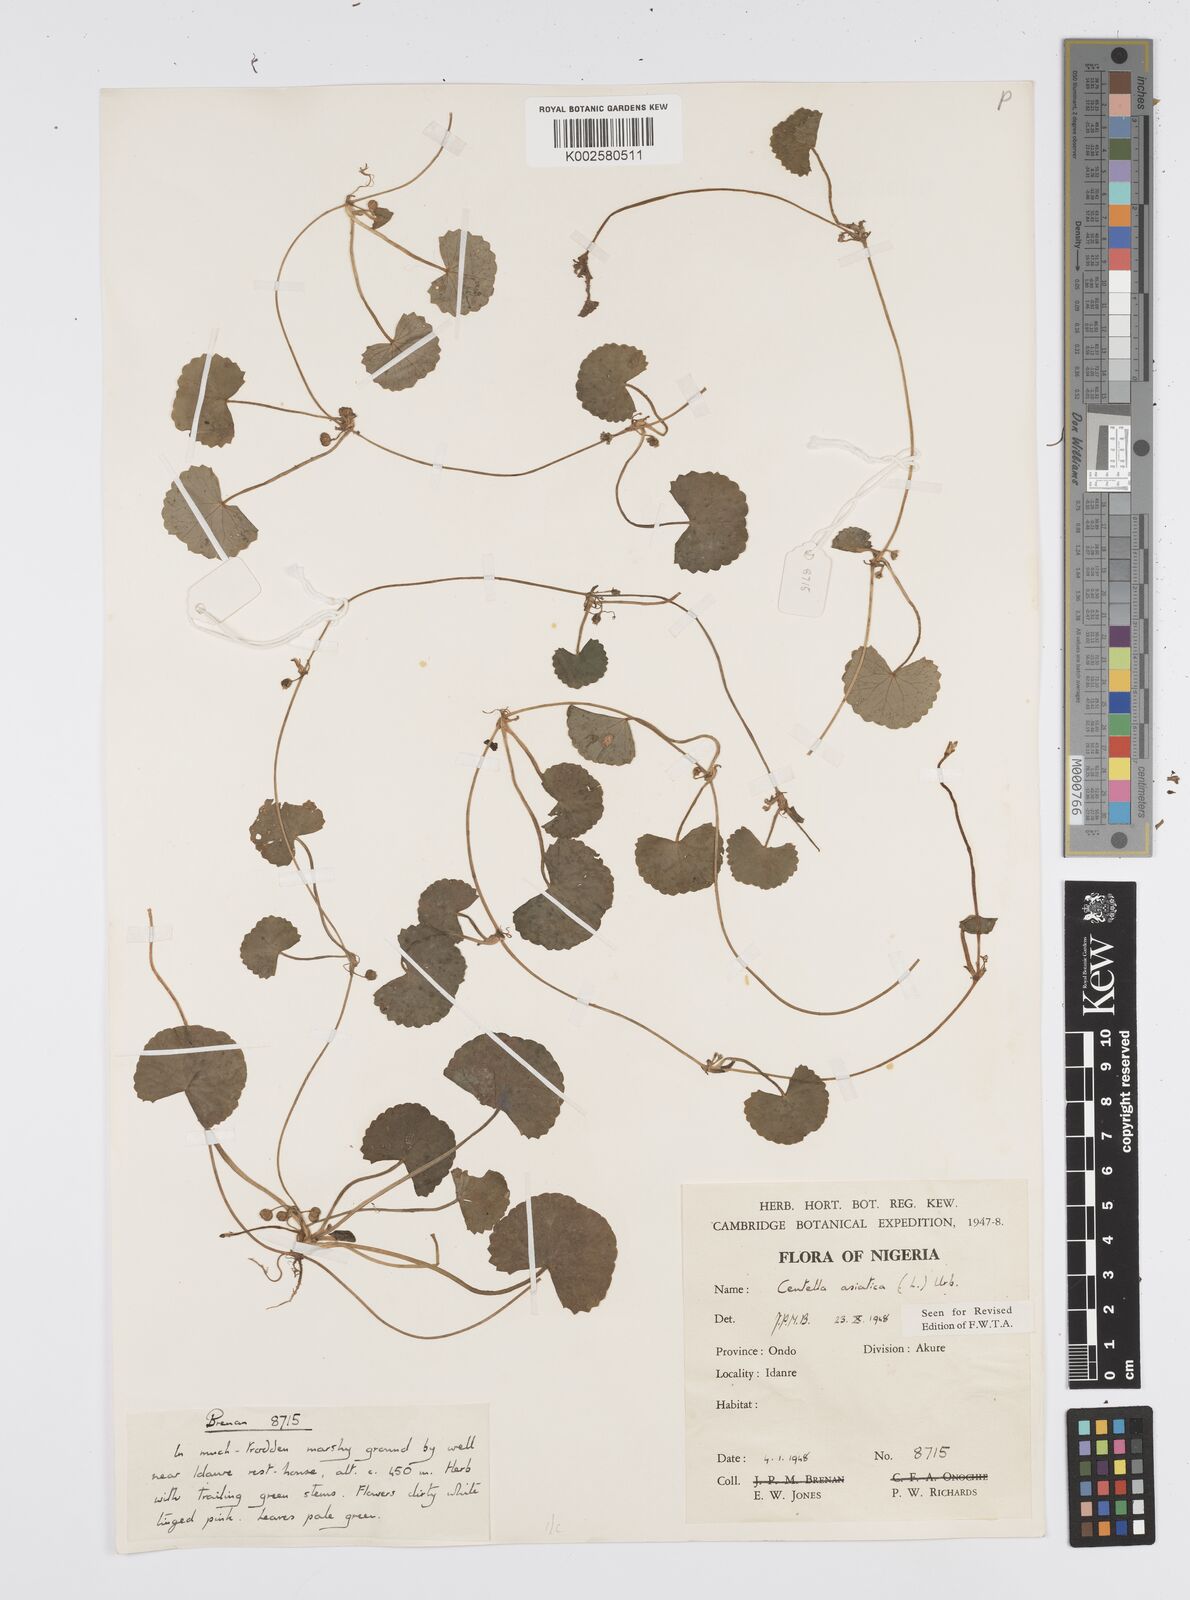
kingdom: Plantae
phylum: Tracheophyta
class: Magnoliopsida
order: Apiales
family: Apiaceae
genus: Centella
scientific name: Centella asiatica
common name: Spadeleaf
